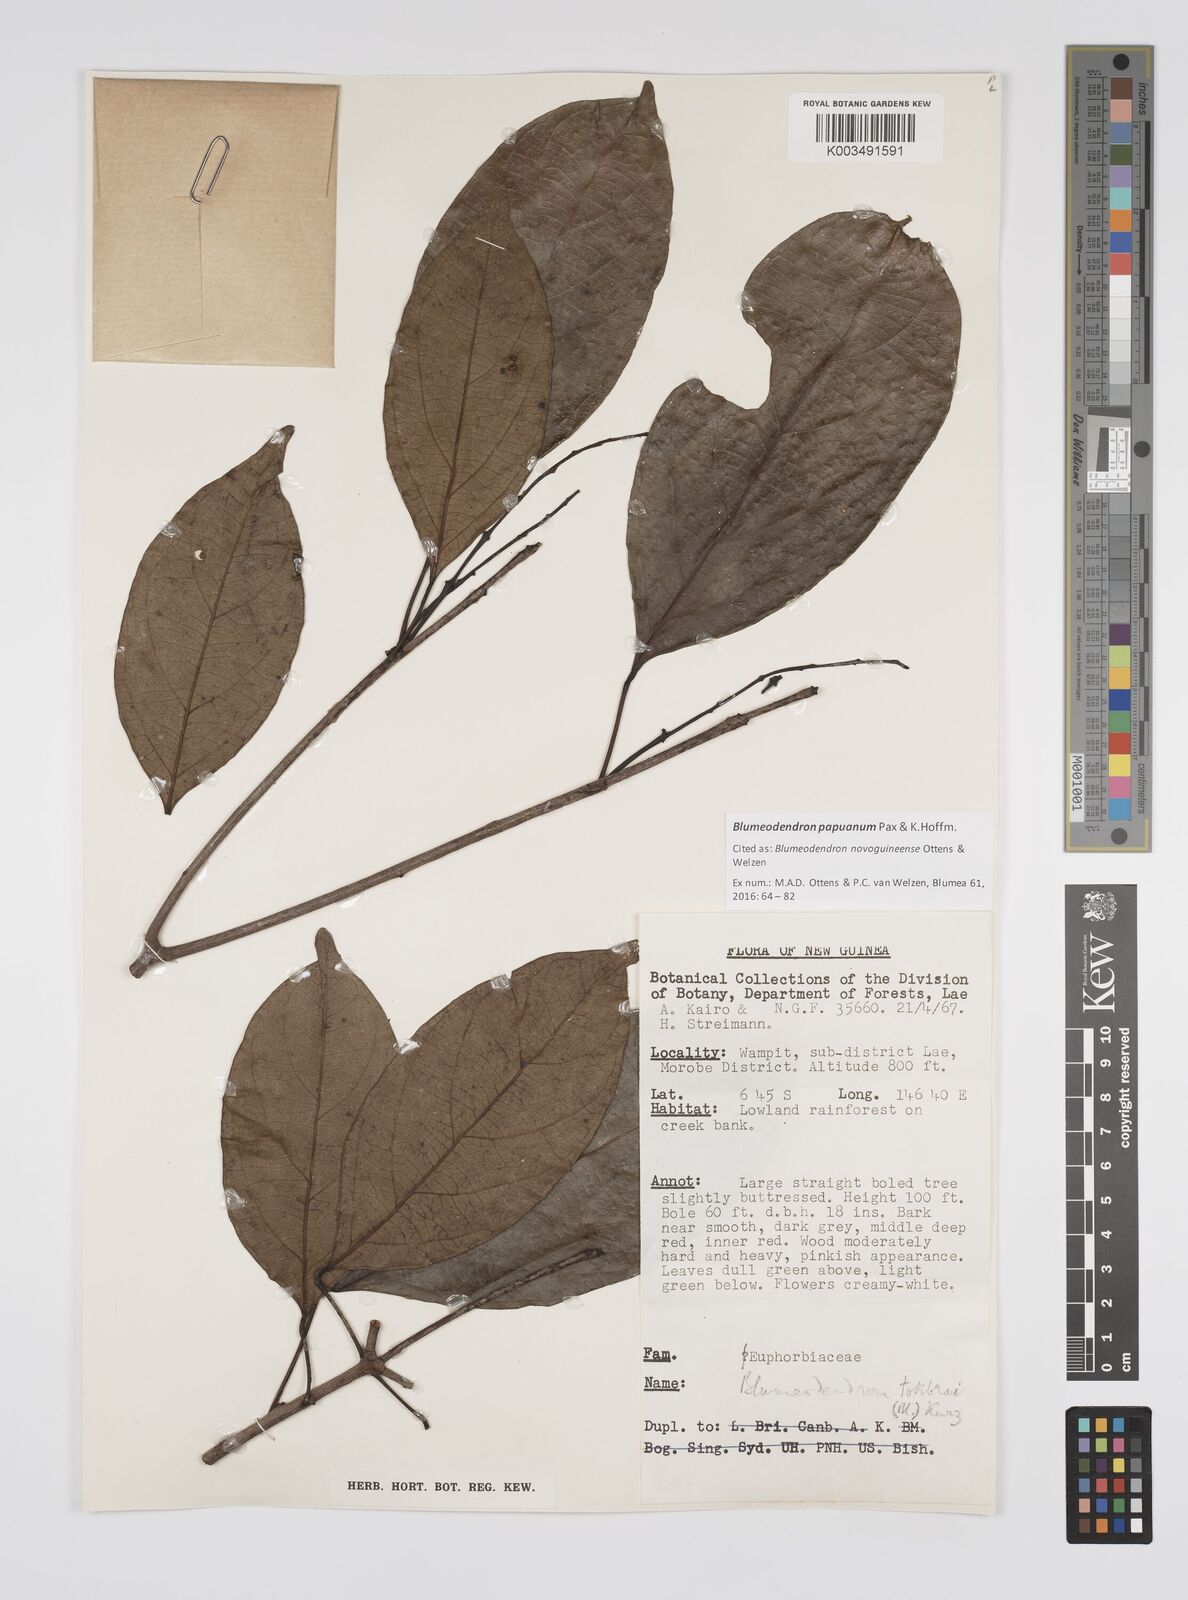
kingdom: Plantae
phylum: Tracheophyta
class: Magnoliopsida
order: Malpighiales
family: Euphorbiaceae
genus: Blumeodendron
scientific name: Blumeodendron papuanum
